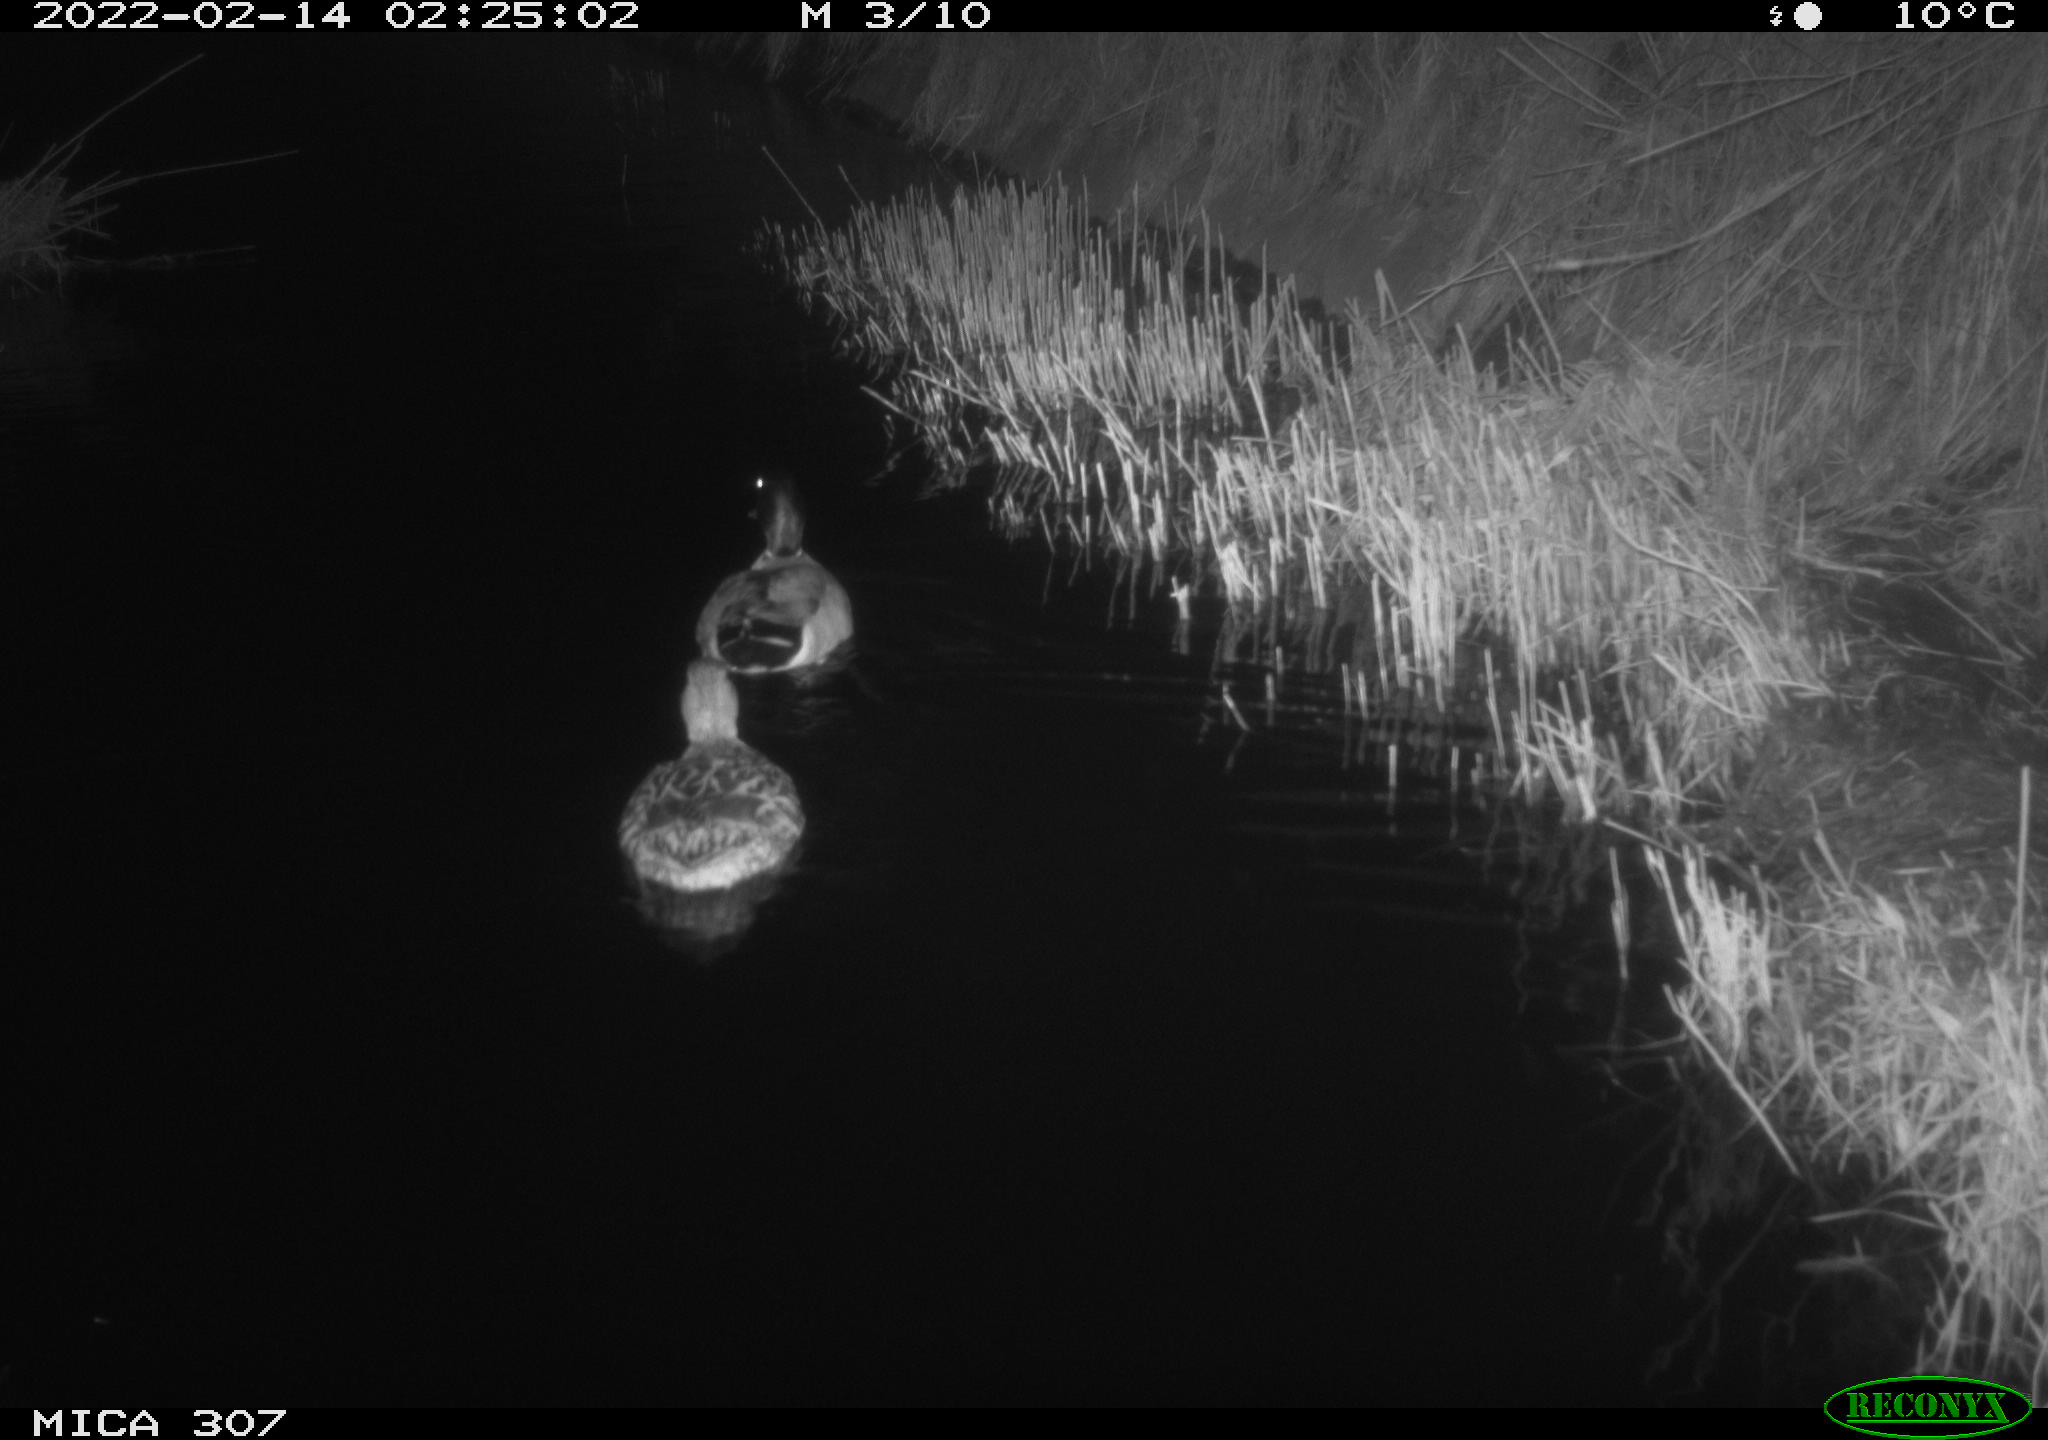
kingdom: Animalia
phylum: Chordata
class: Aves
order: Anseriformes
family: Anatidae
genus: Anas
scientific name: Anas platyrhynchos
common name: Mallard
